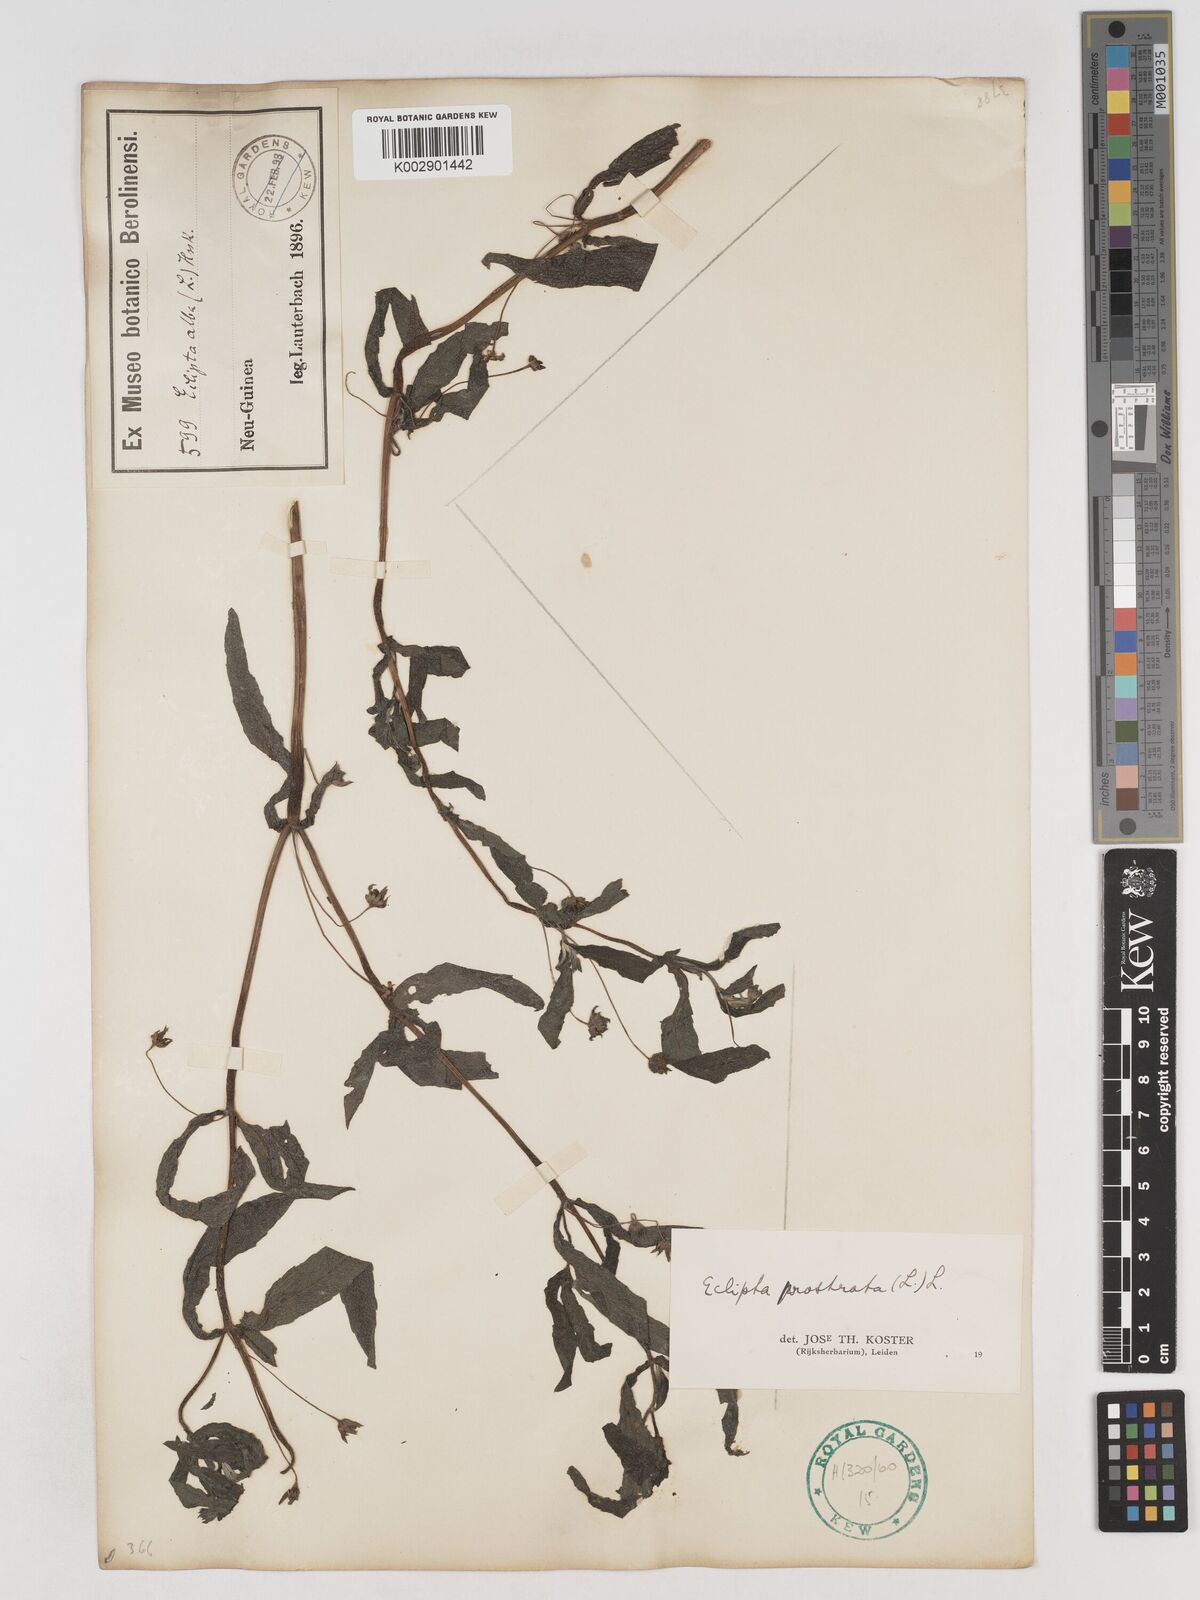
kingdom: Plantae
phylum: Tracheophyta
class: Magnoliopsida
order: Asterales
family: Asteraceae
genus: Eclipta
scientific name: Eclipta prostrata
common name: False daisy
